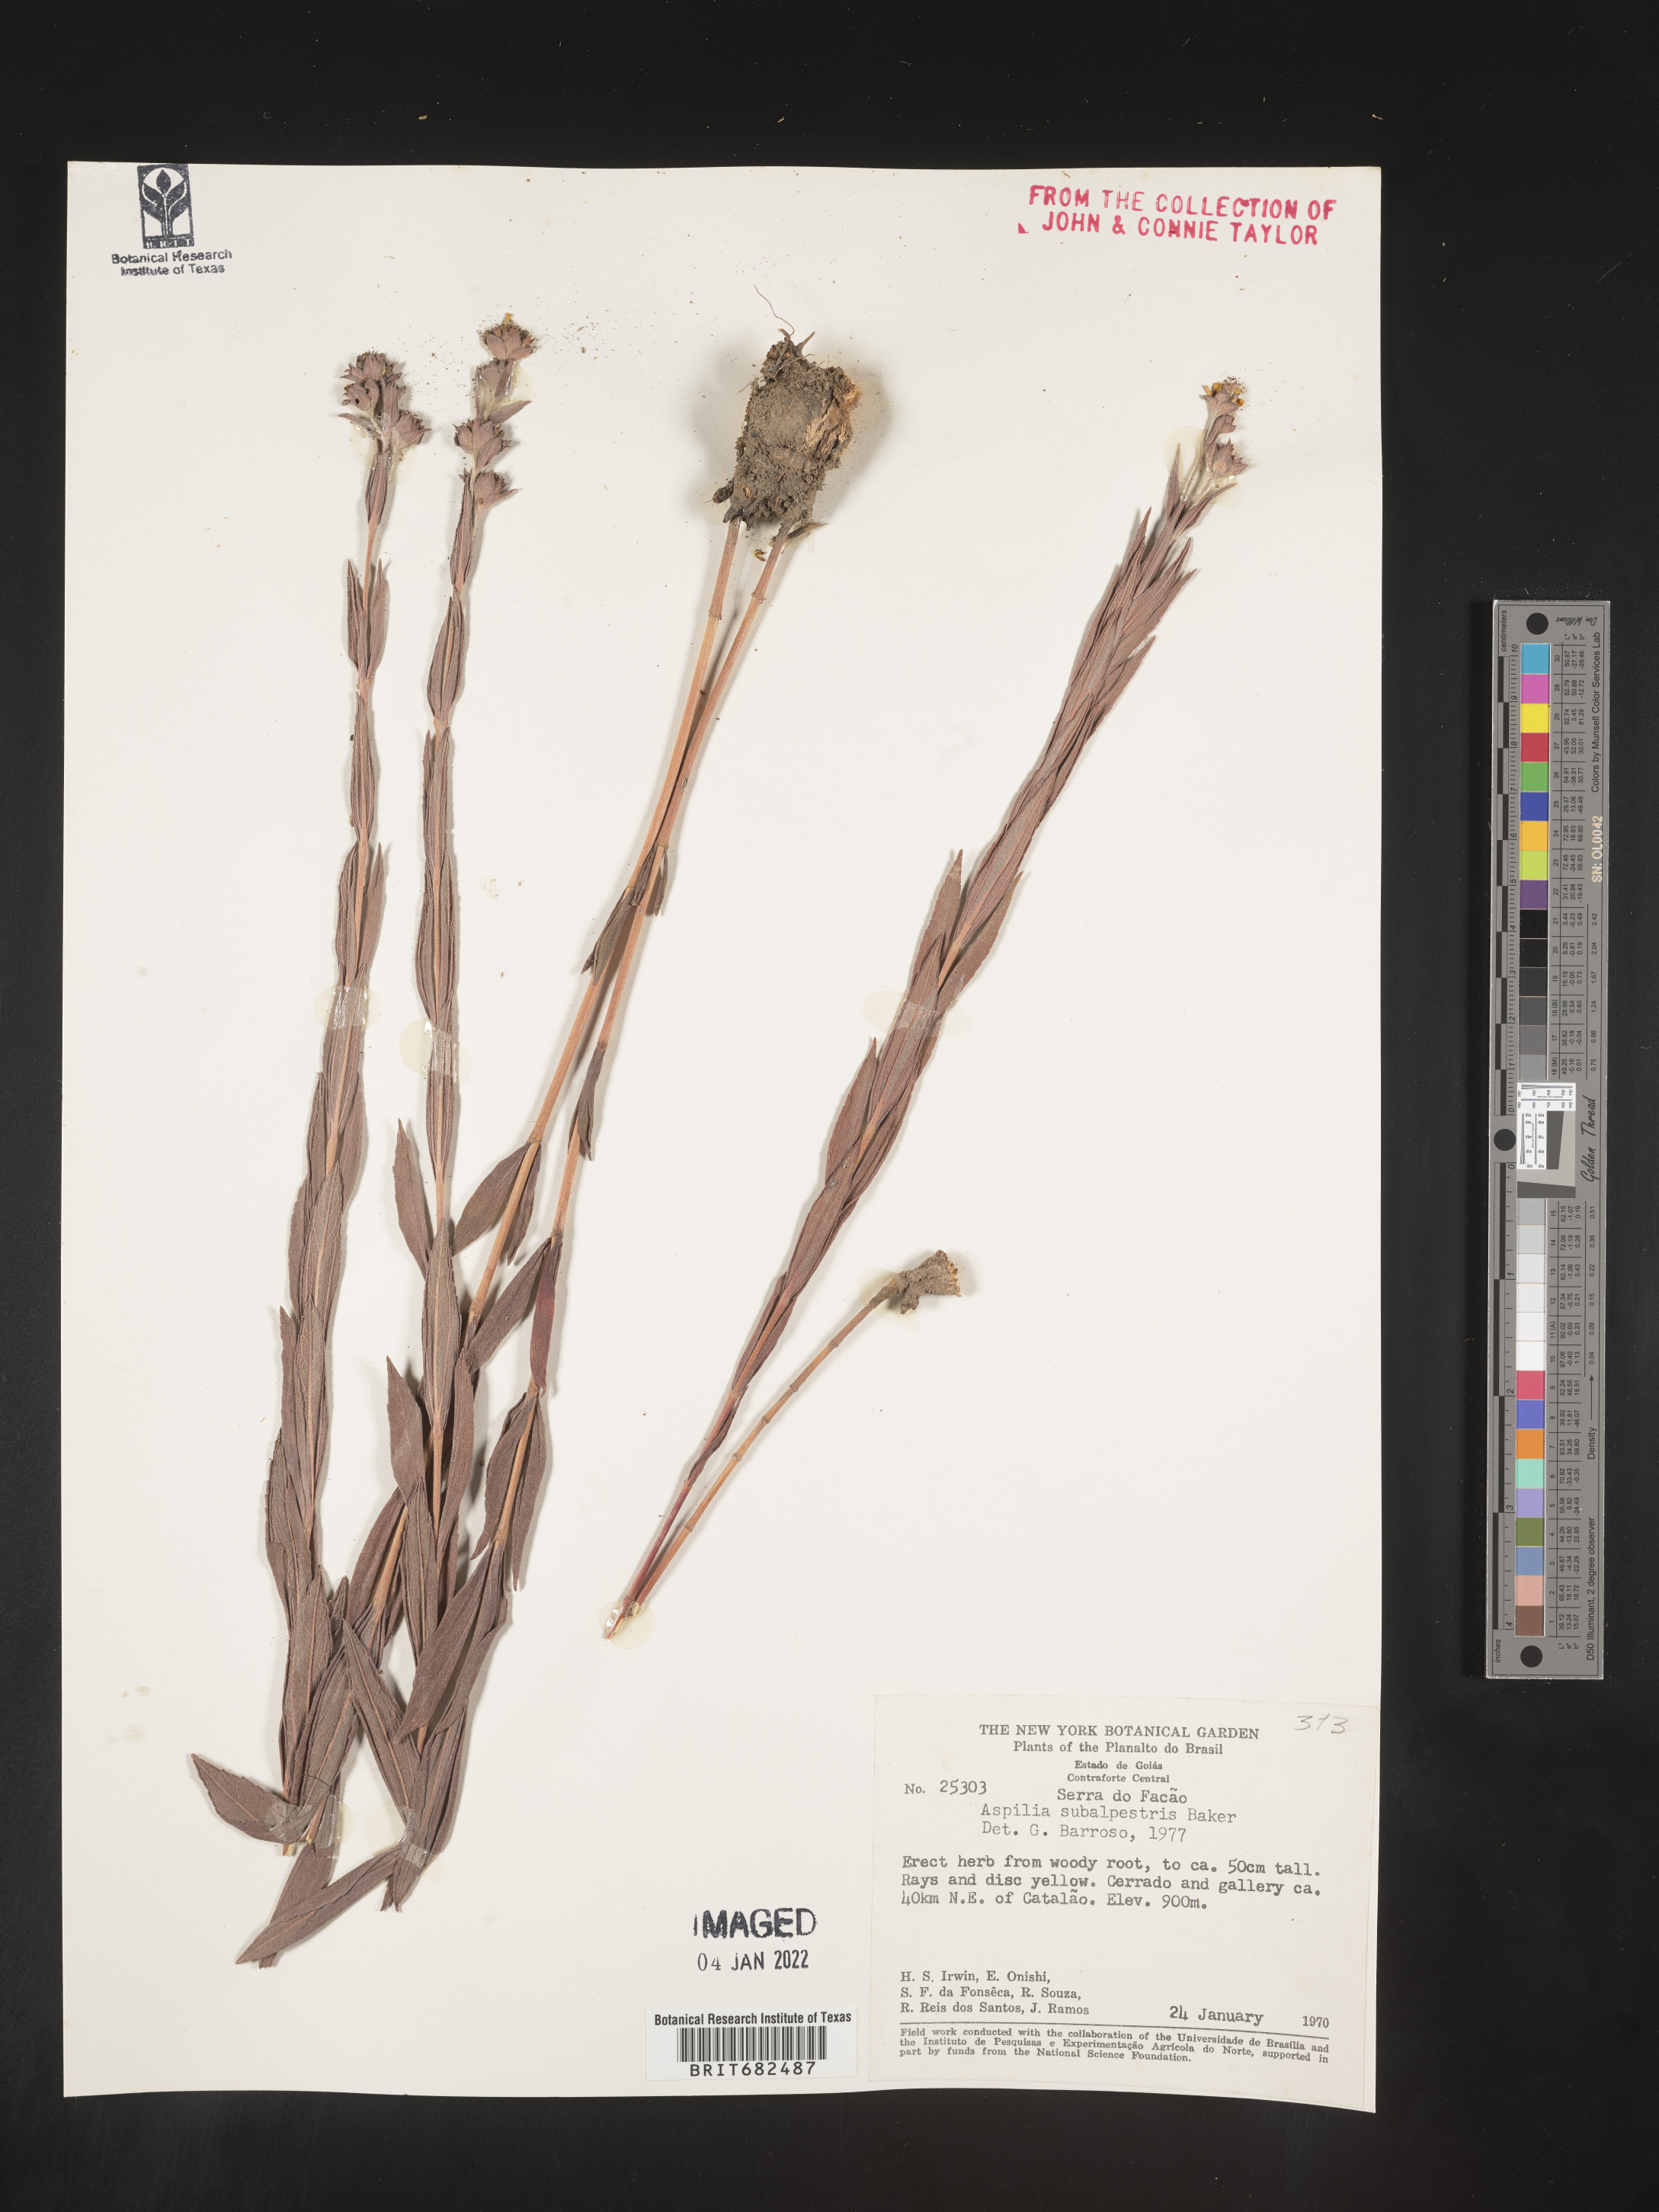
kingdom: Plantae
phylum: Tracheophyta
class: Magnoliopsida
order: Asterales
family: Asteraceae
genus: Aspilia
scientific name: Aspilia
